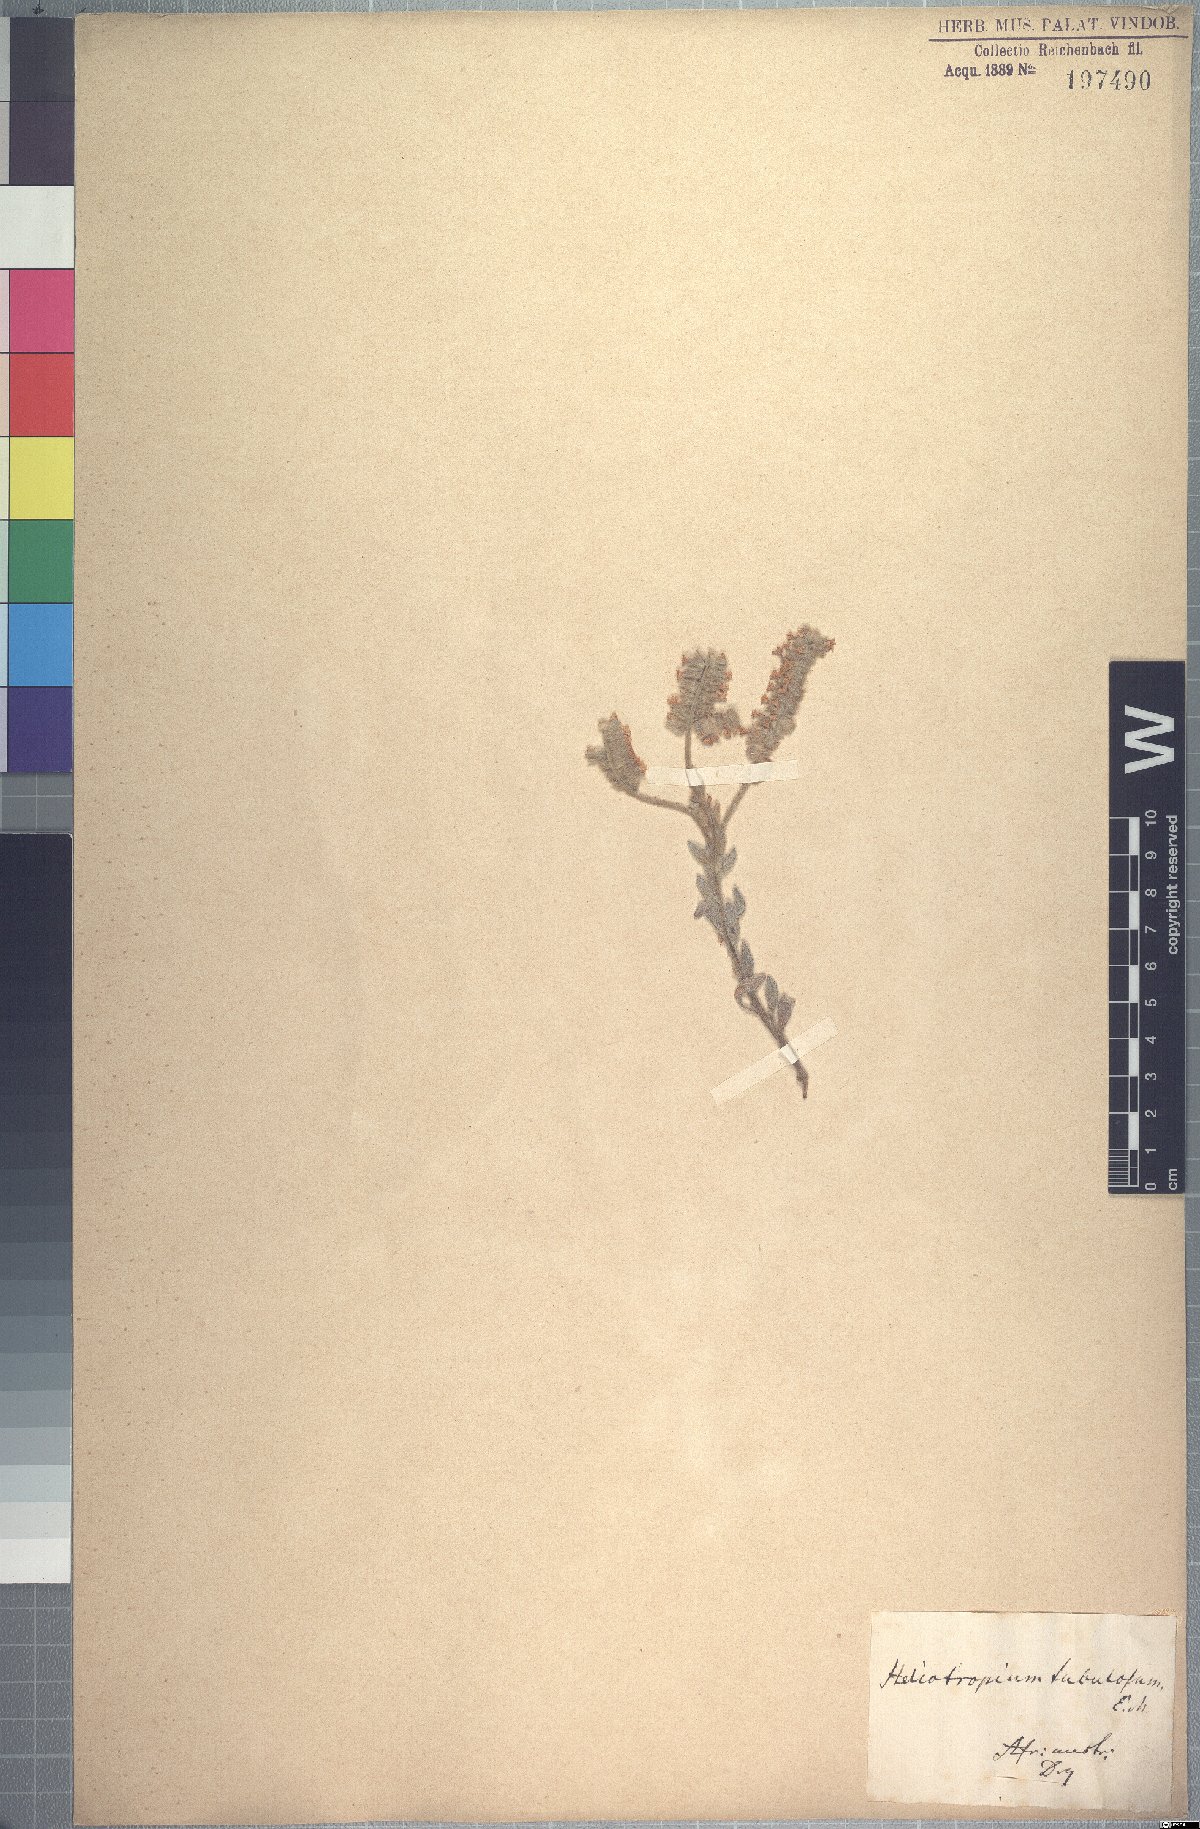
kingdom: Plantae
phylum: Tracheophyta
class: Magnoliopsida
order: Boraginales
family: Heliotropiaceae
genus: Heliotropium
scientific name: Heliotropium tubulosum
